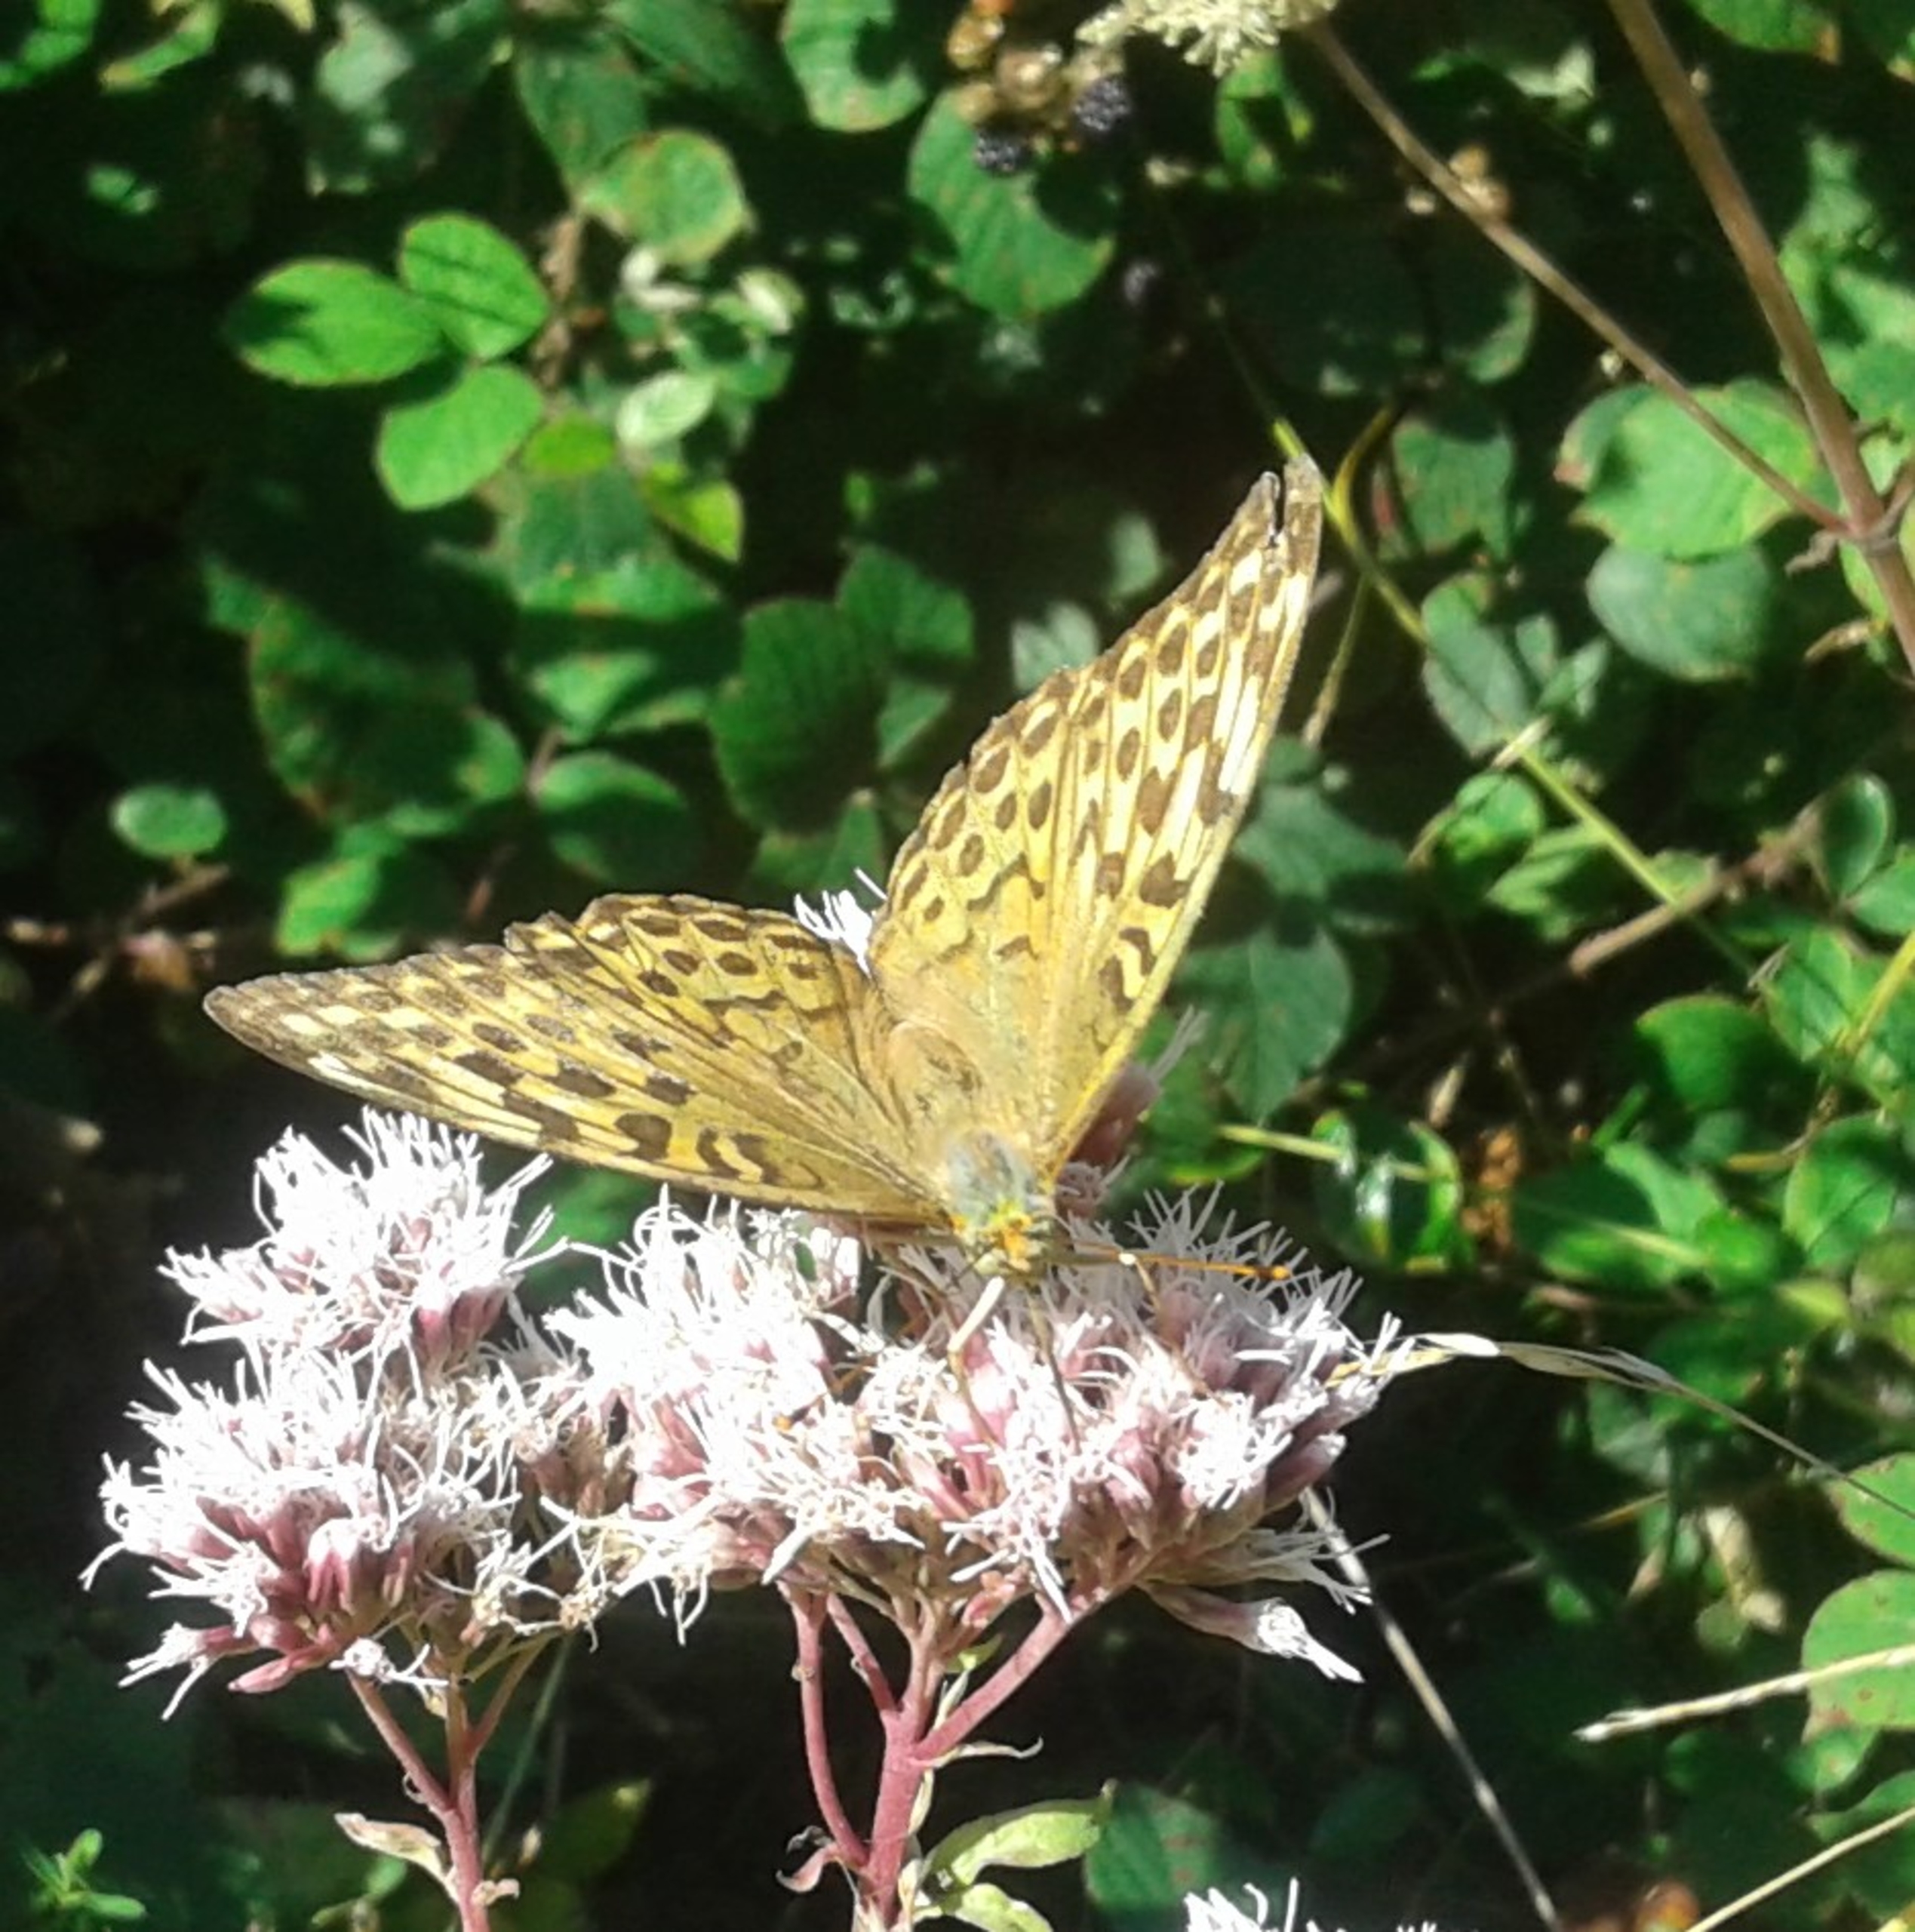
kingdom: Animalia
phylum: Arthropoda
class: Insecta
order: Lepidoptera
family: Nymphalidae
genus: Argynnis
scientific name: Argynnis paphia
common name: Kejserkåbe
